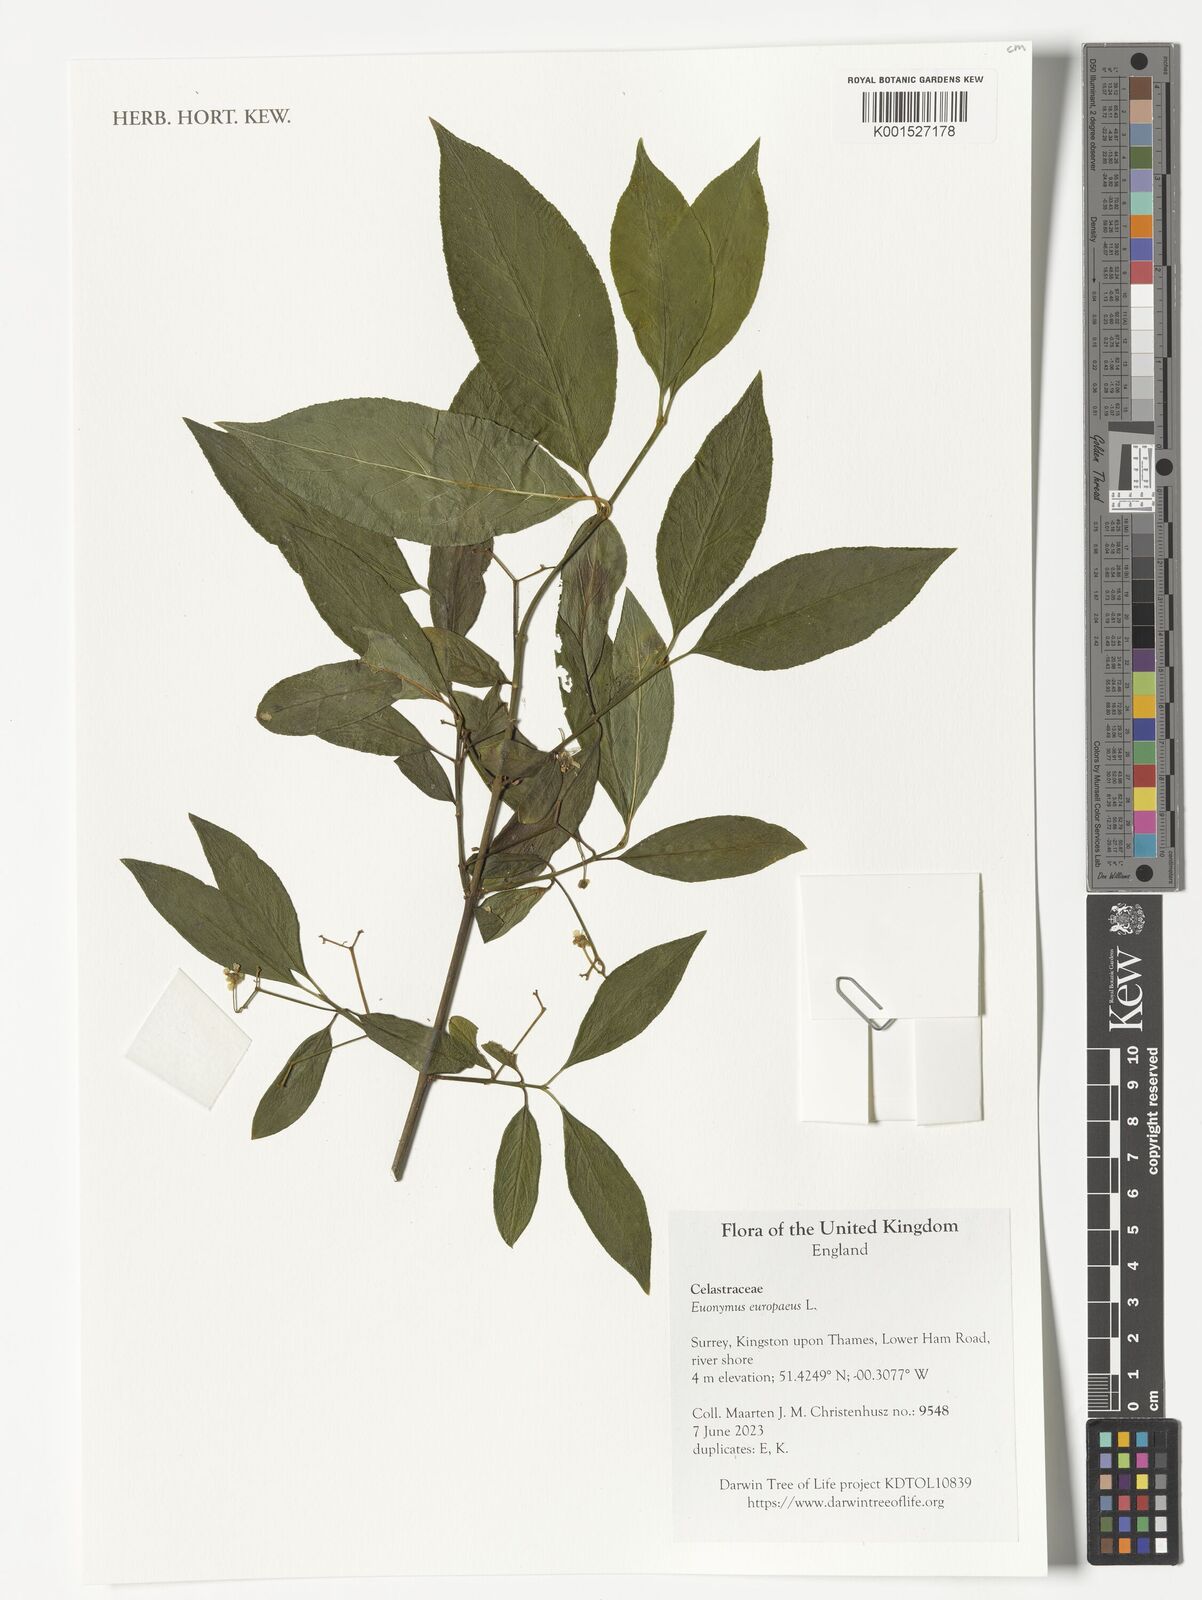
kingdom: Plantae
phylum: Tracheophyta
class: Magnoliopsida
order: Celastrales
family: Celastraceae
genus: Euonymus
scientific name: Euonymus europaeus
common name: Spindle
